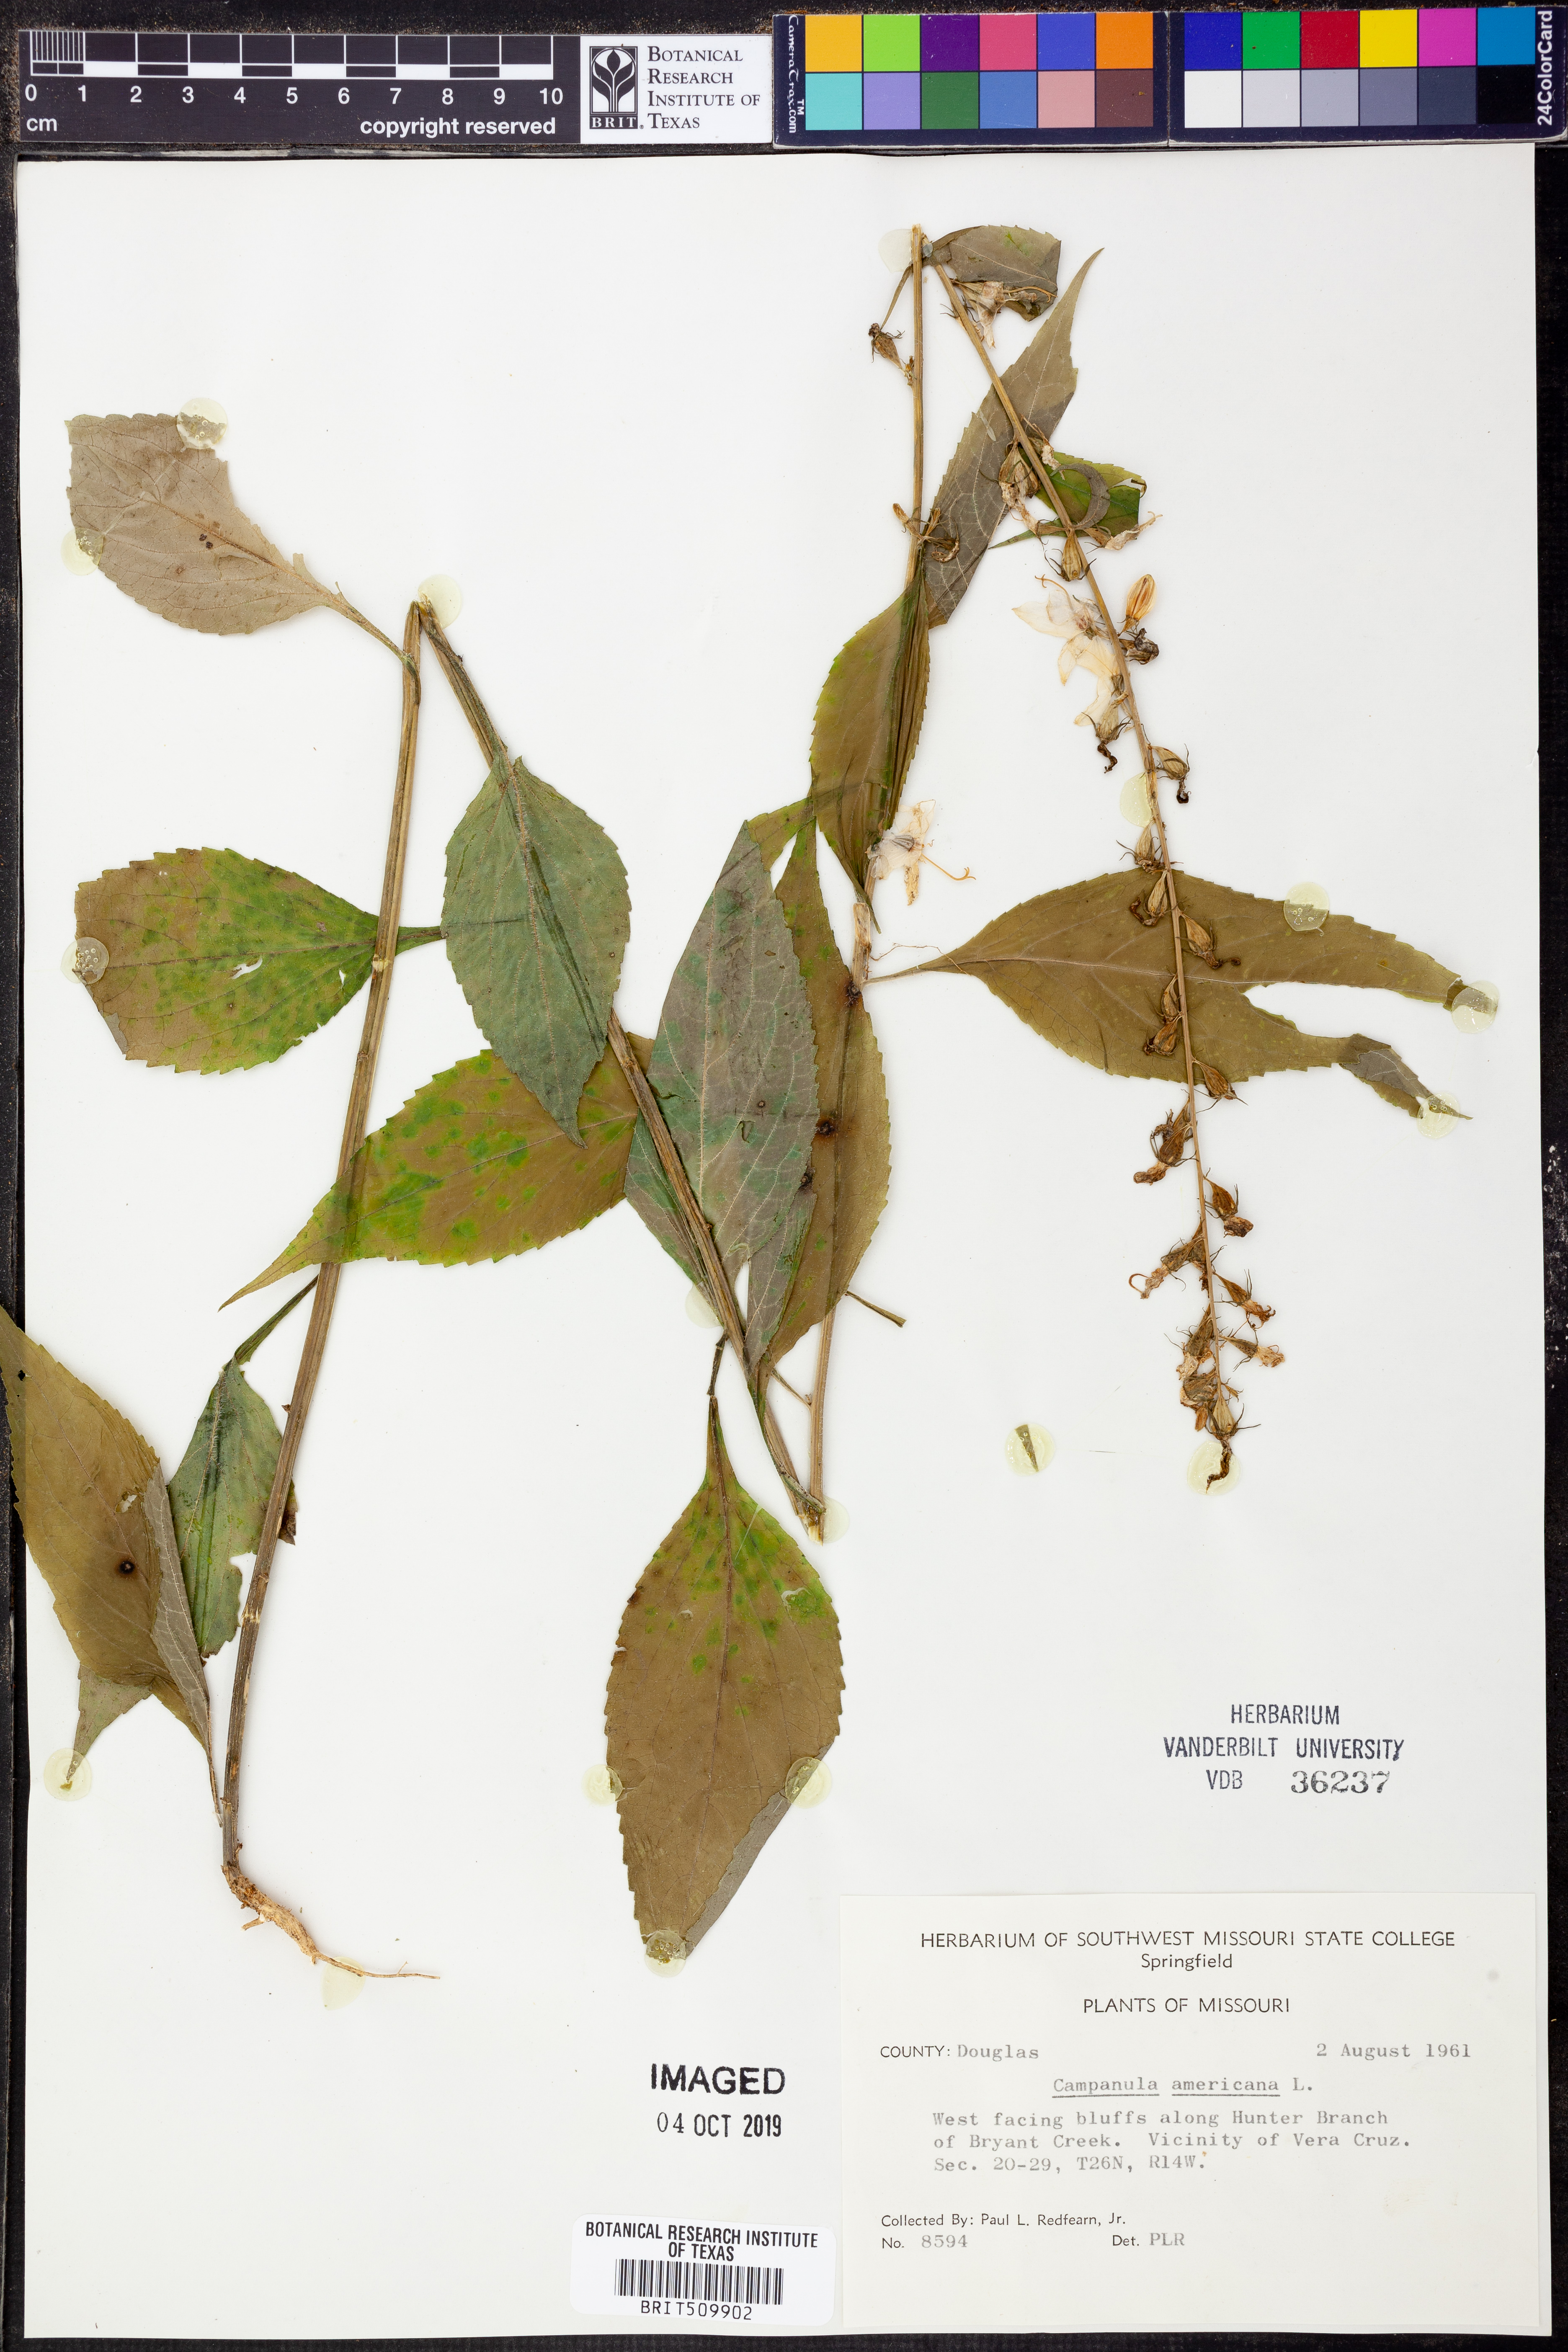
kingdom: Plantae
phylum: Tracheophyta
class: Magnoliopsida
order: Asterales
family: Campanulaceae
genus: Campanula
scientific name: Campanula americana
